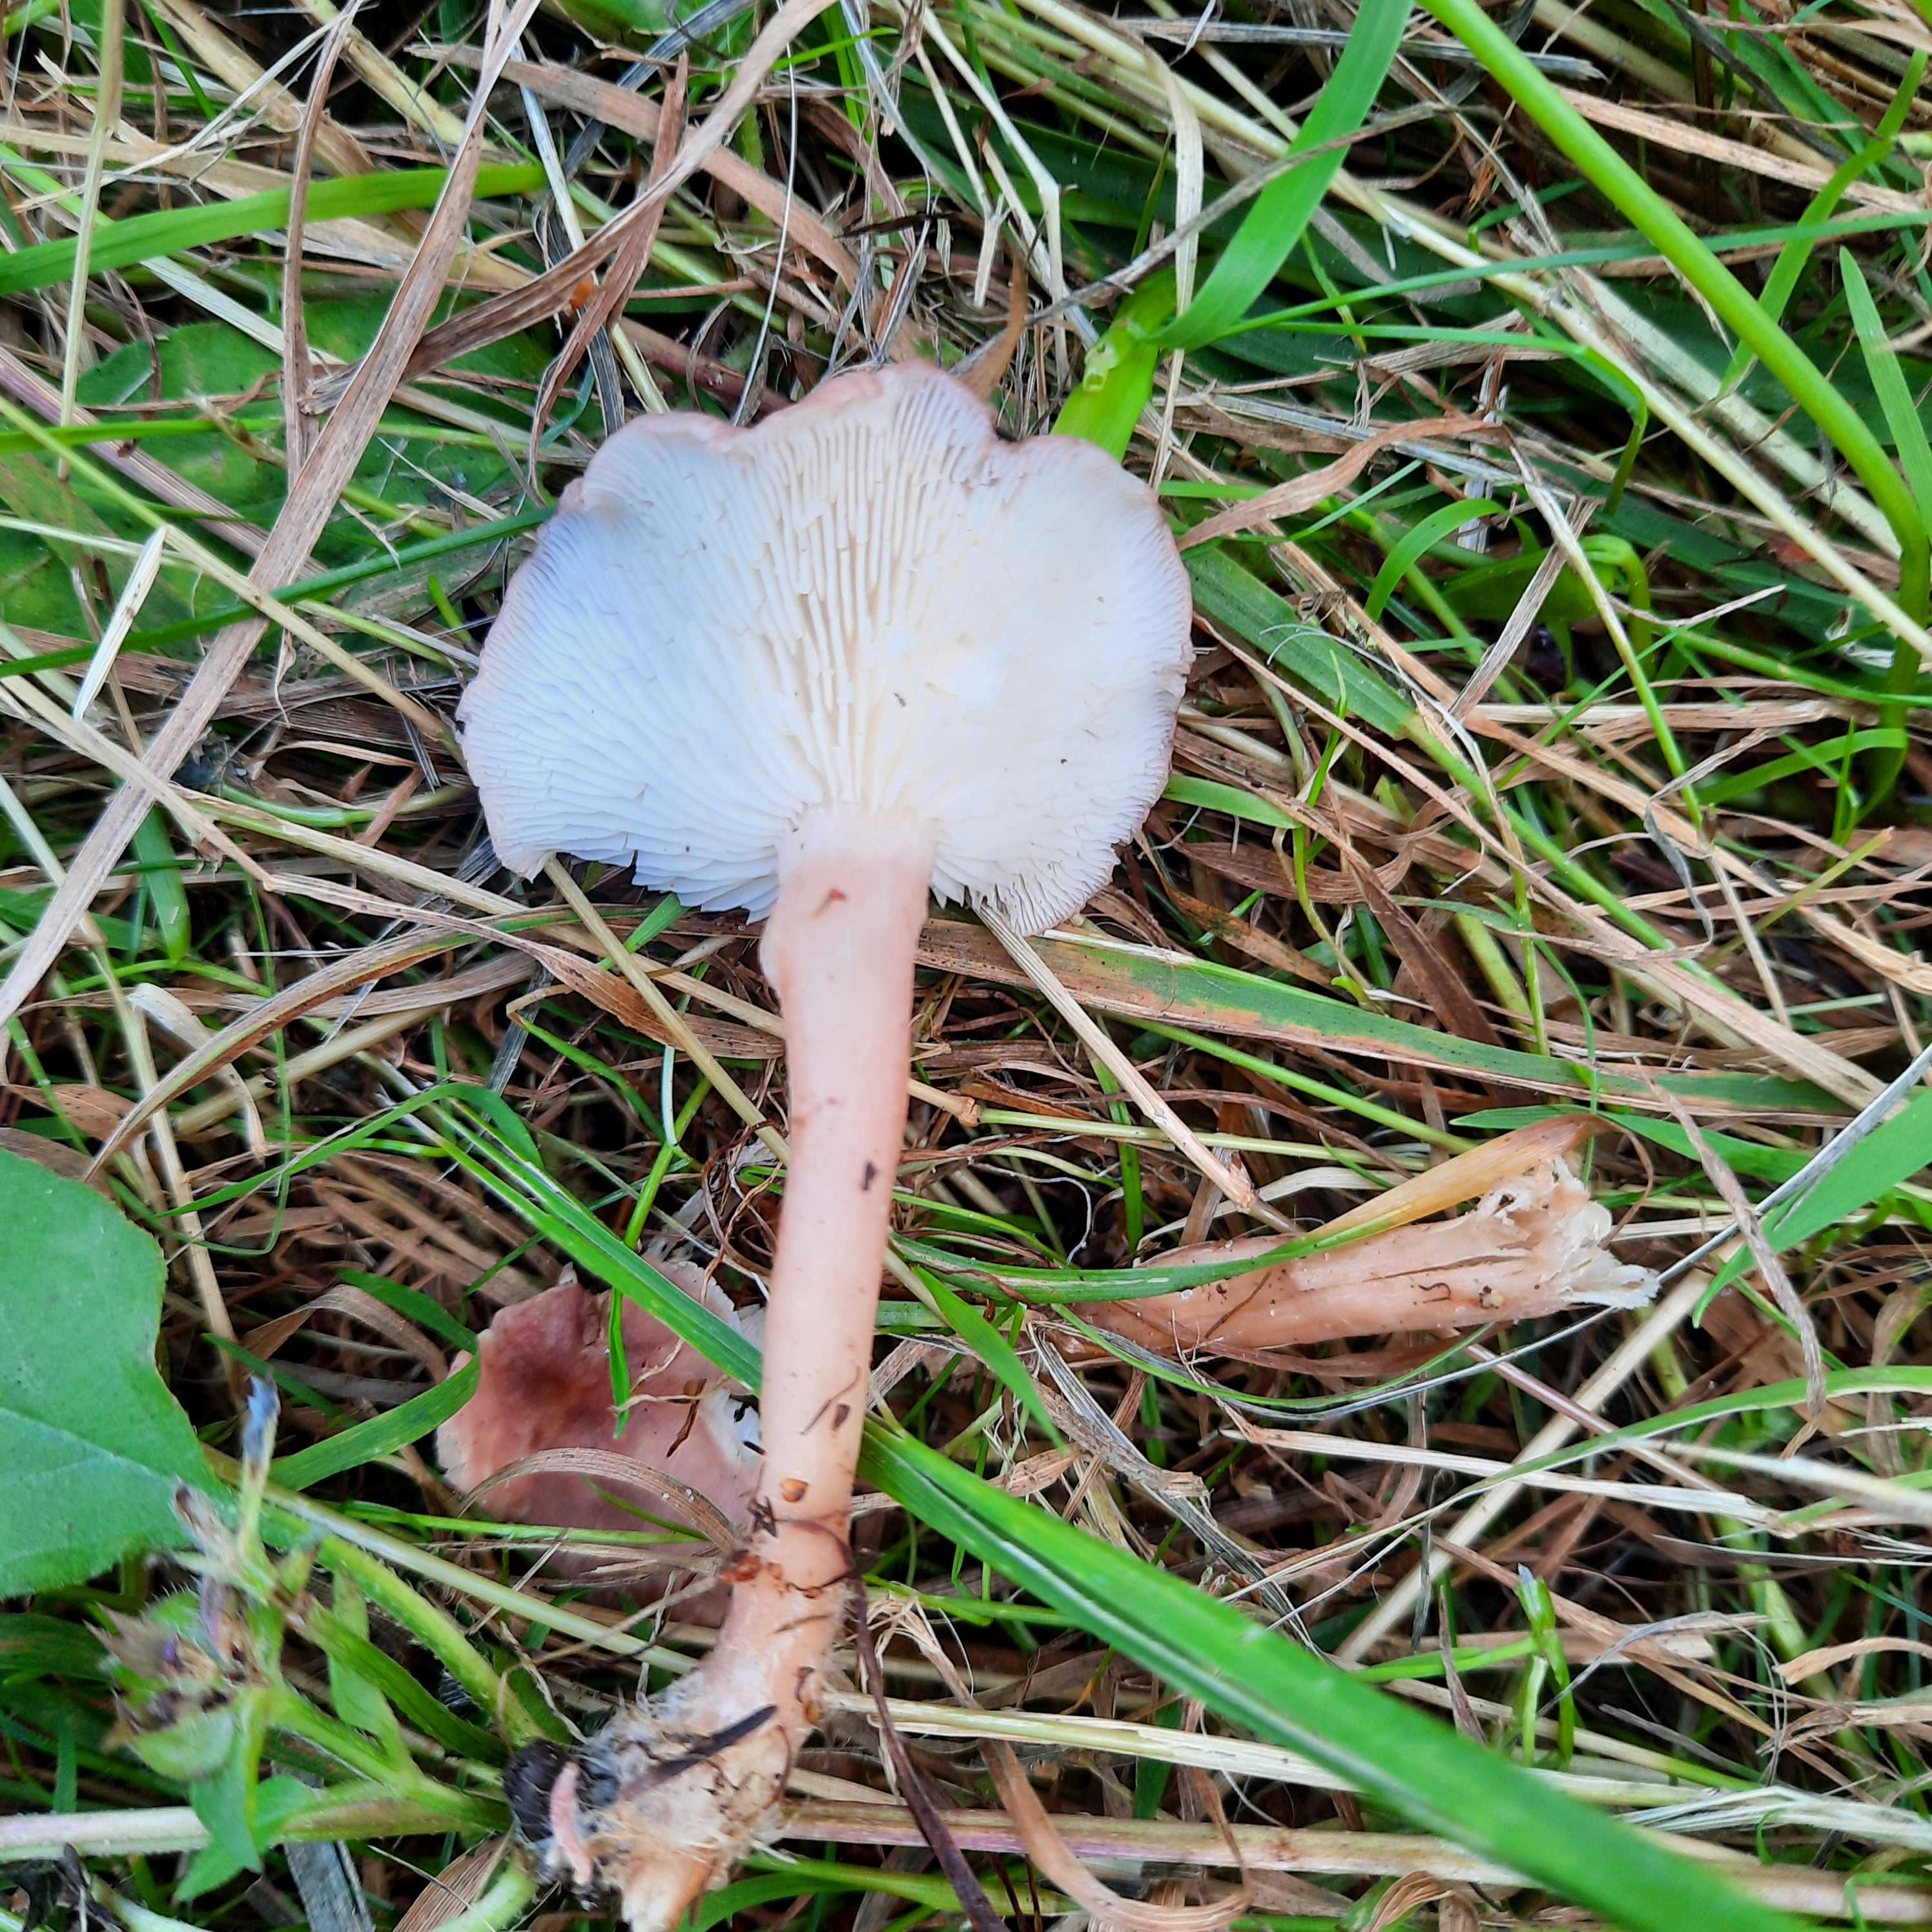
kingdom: Fungi
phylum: Basidiomycota
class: Agaricomycetes
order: Agaricales
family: Lyophyllaceae
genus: Calocybe
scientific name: Calocybe carnea
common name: rosa fagerhat
